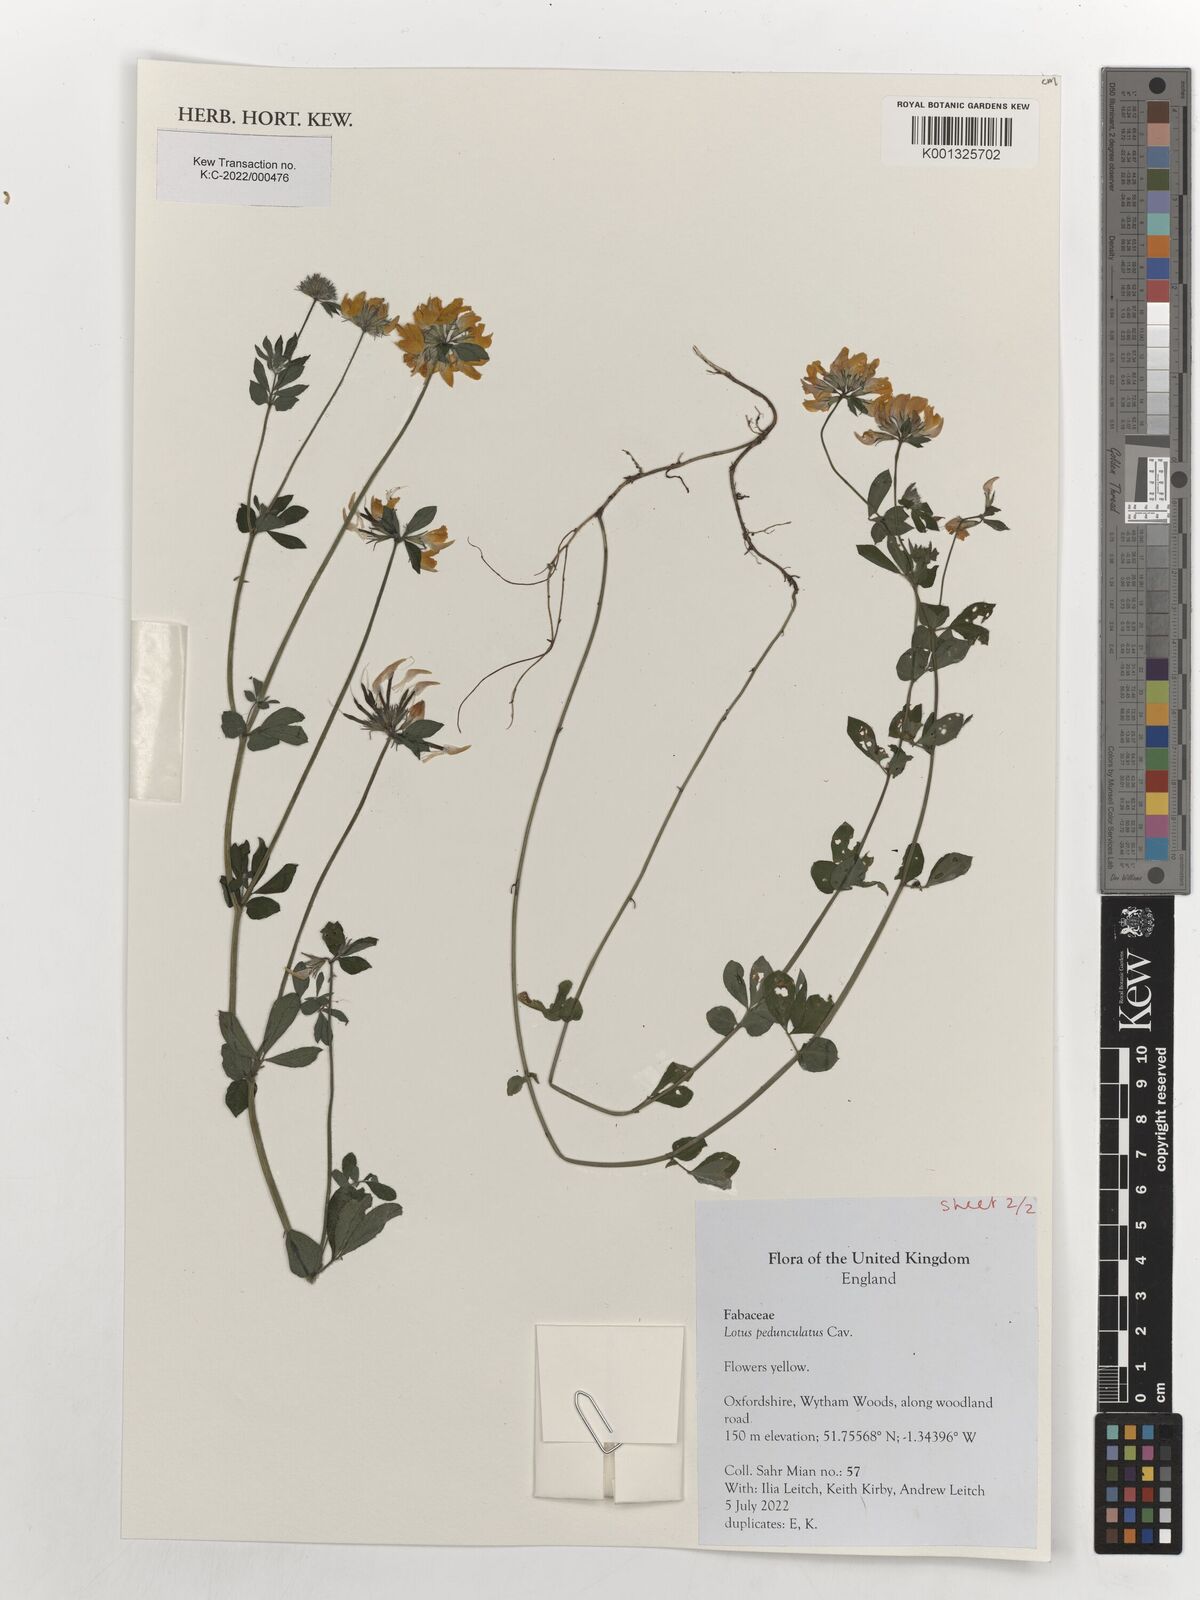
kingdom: Plantae
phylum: Tracheophyta
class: Magnoliopsida
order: Fabales
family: Fabaceae
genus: Lotus
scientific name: Lotus pedunculatus
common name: Greater birdsfoot-trefoil
